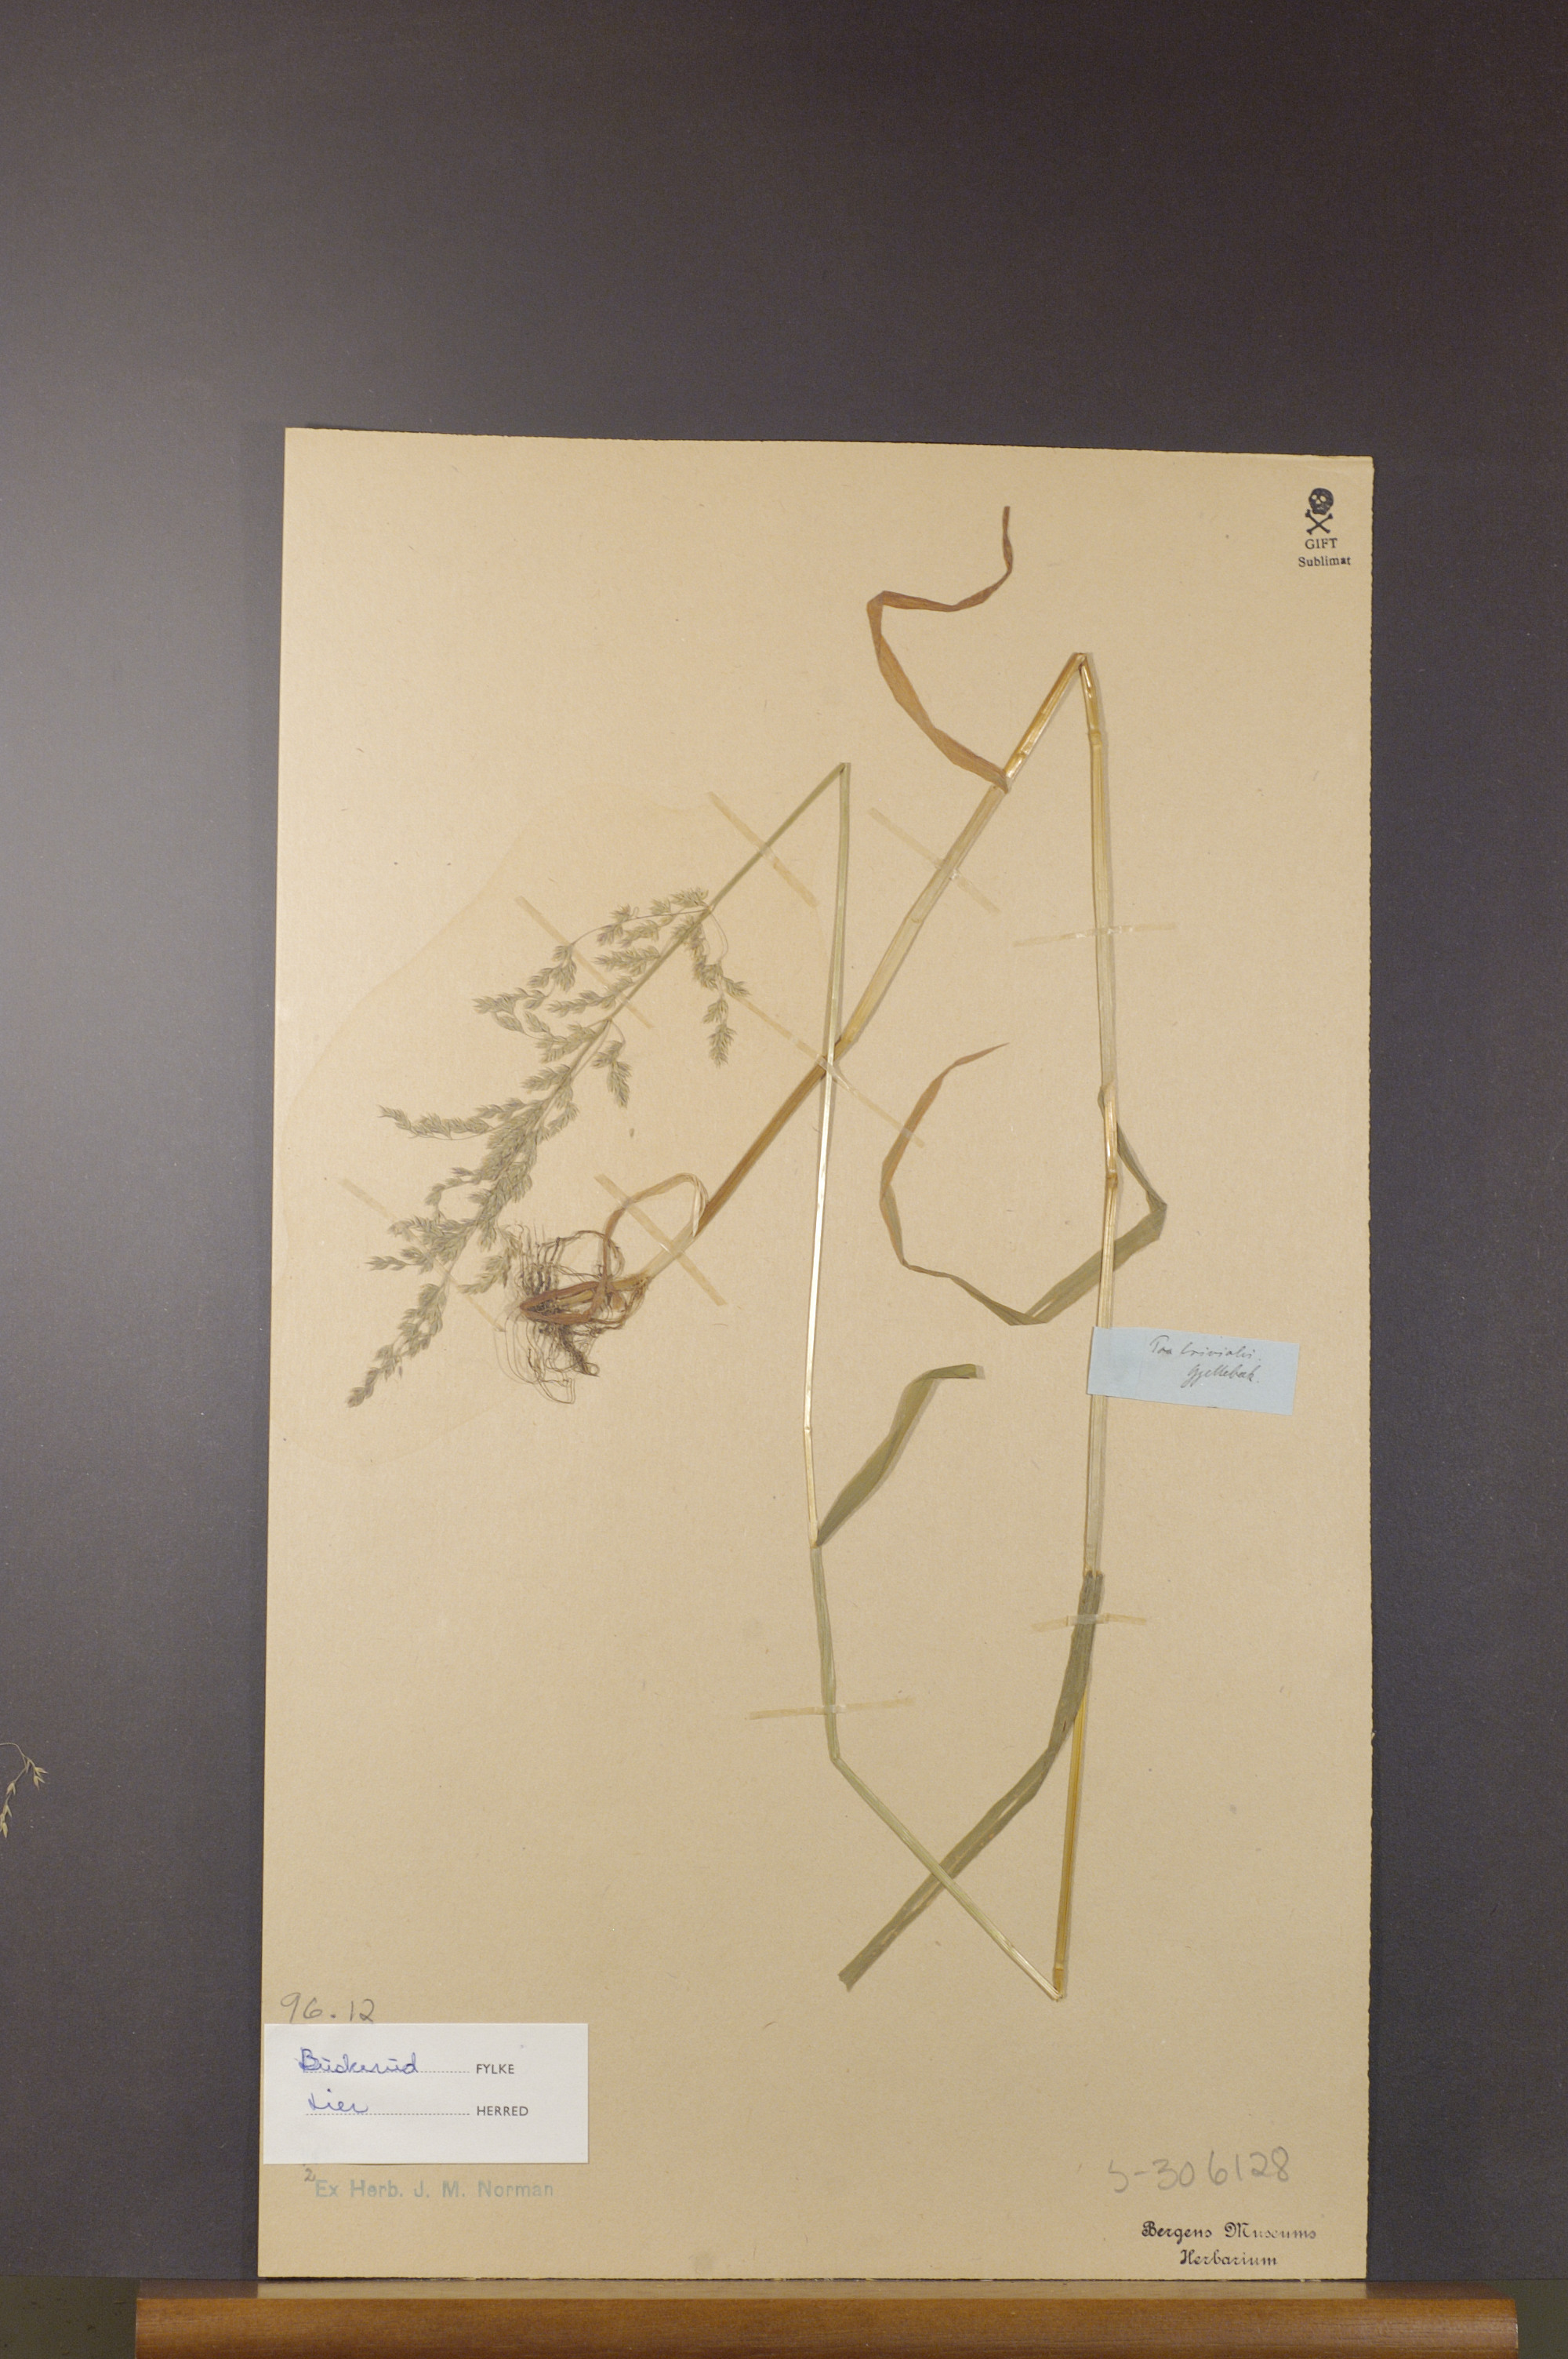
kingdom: Plantae
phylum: Tracheophyta
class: Liliopsida
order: Poales
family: Poaceae
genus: Poa
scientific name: Poa trivialis
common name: Rough bluegrass
